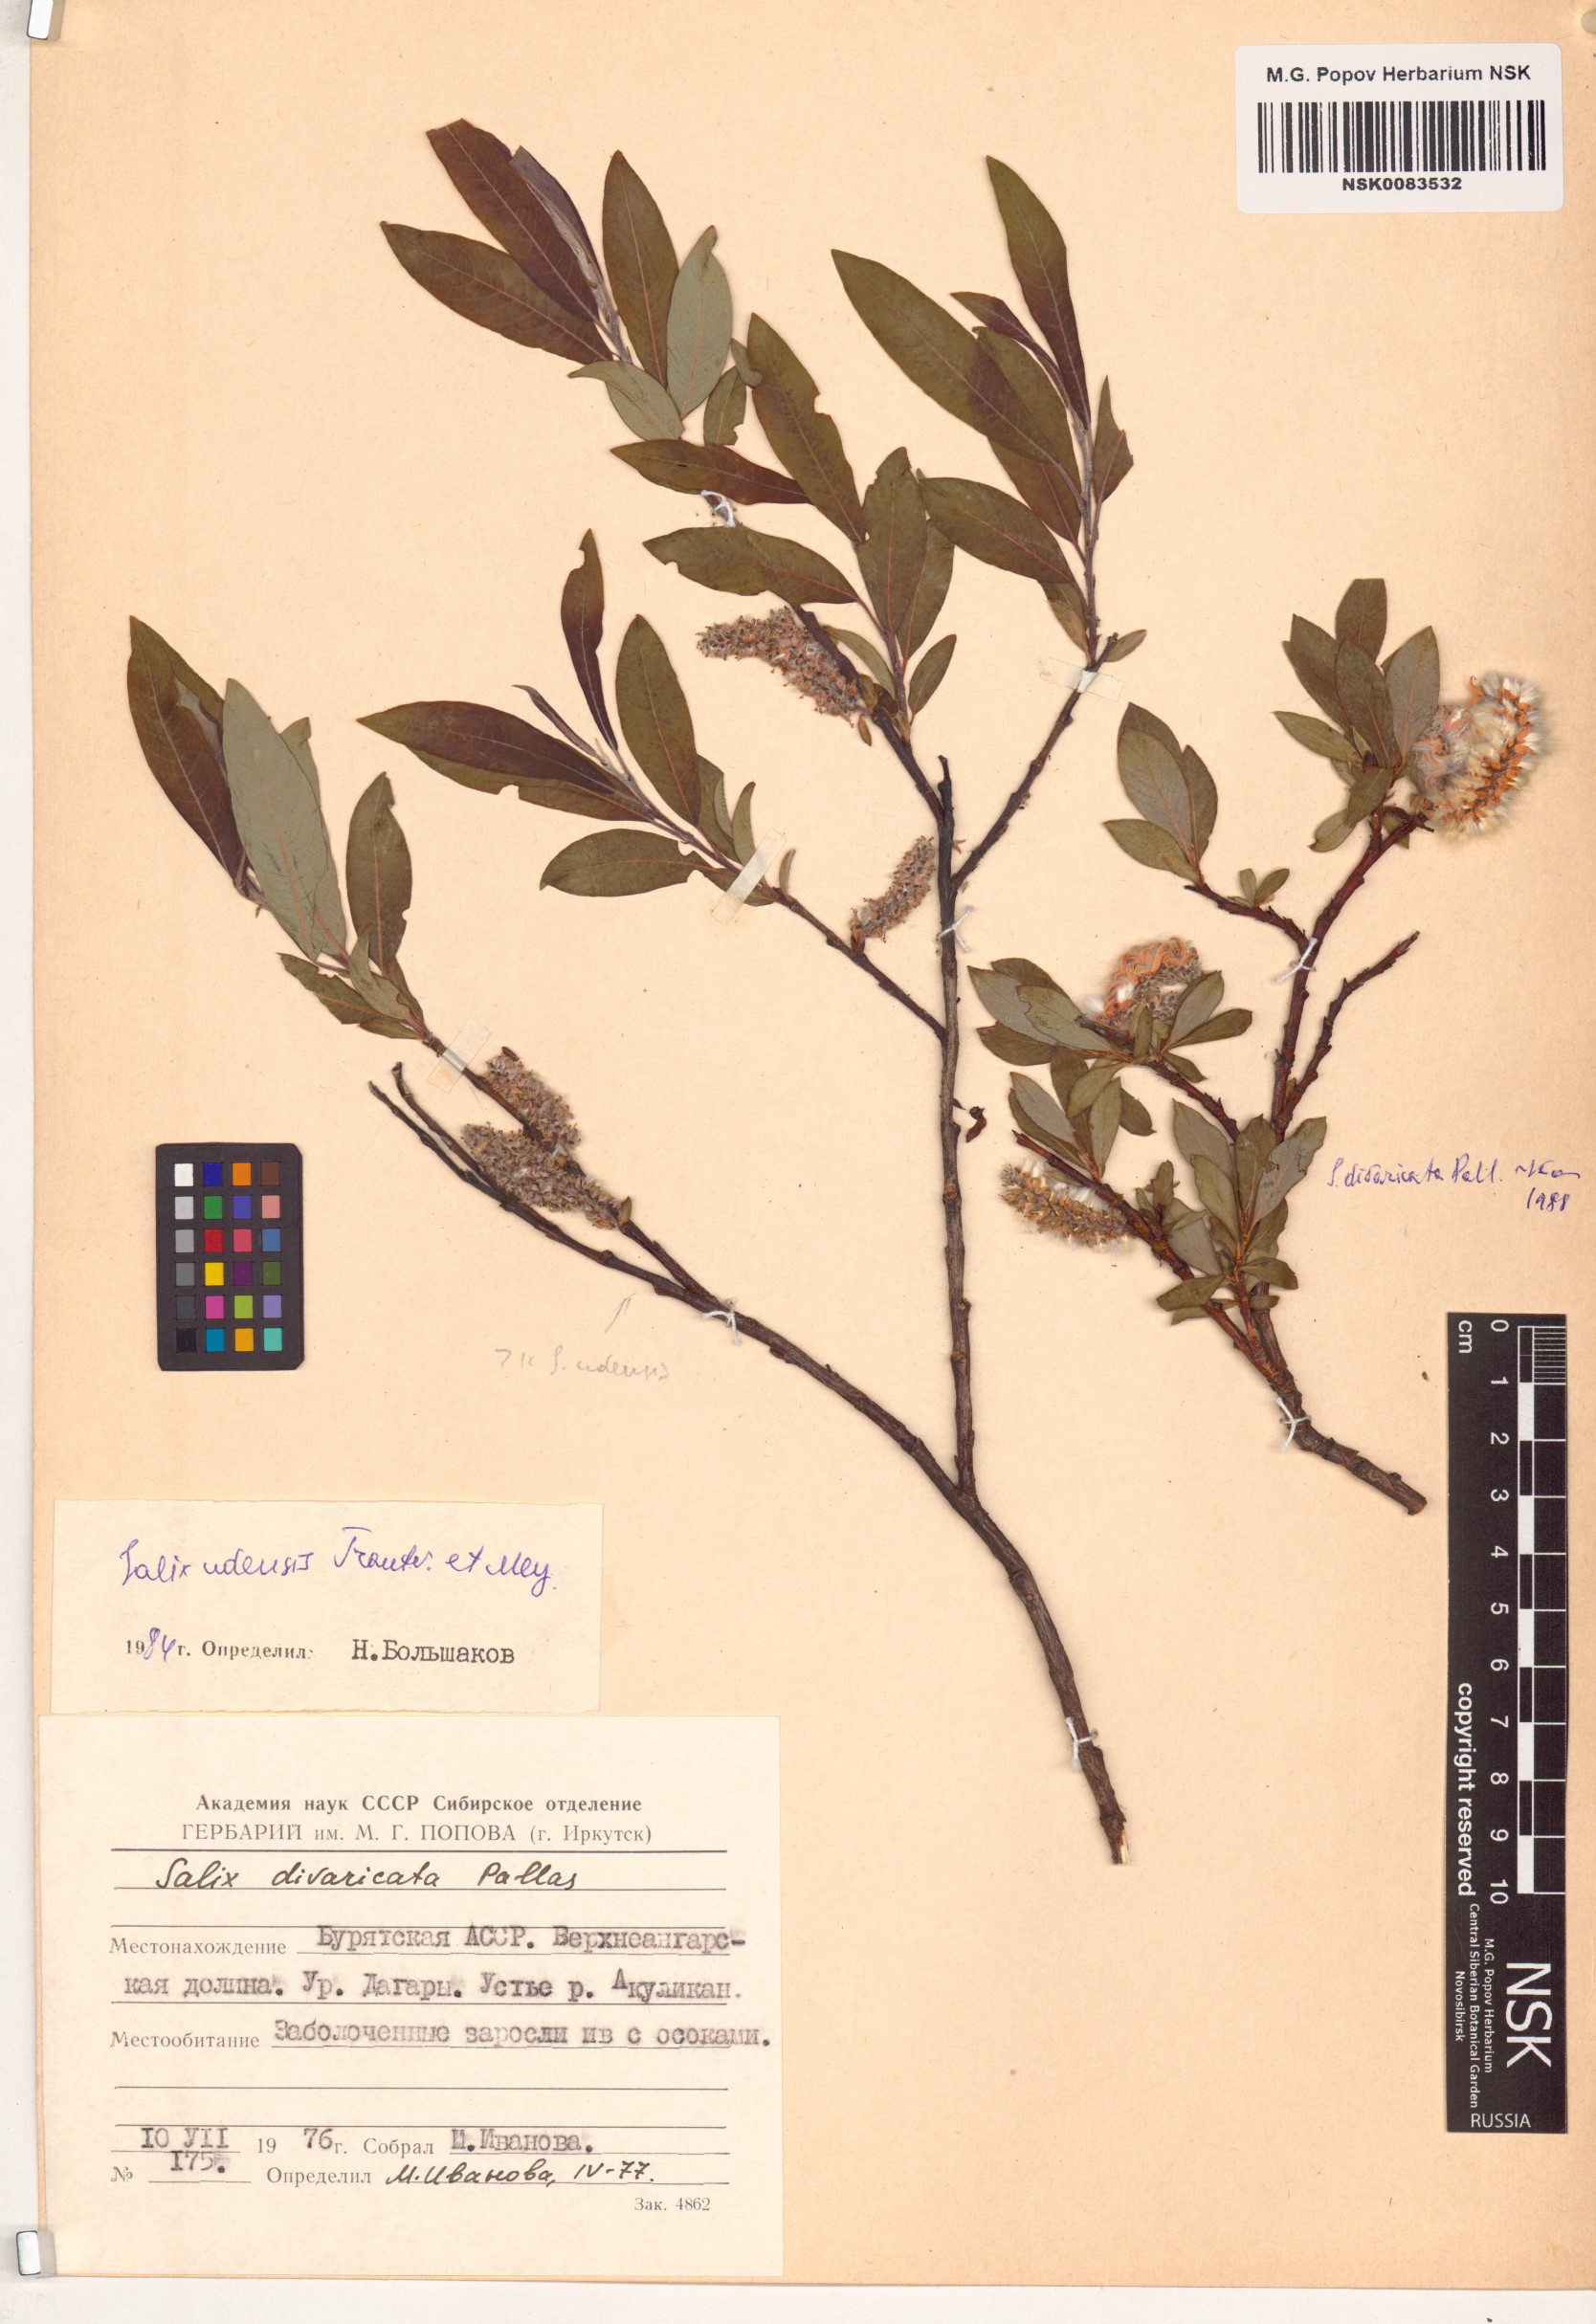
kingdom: Plantae
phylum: Tracheophyta
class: Magnoliopsida
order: Malpighiales
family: Salicaceae
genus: Salix
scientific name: Salix udensis
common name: Sachalin willow
